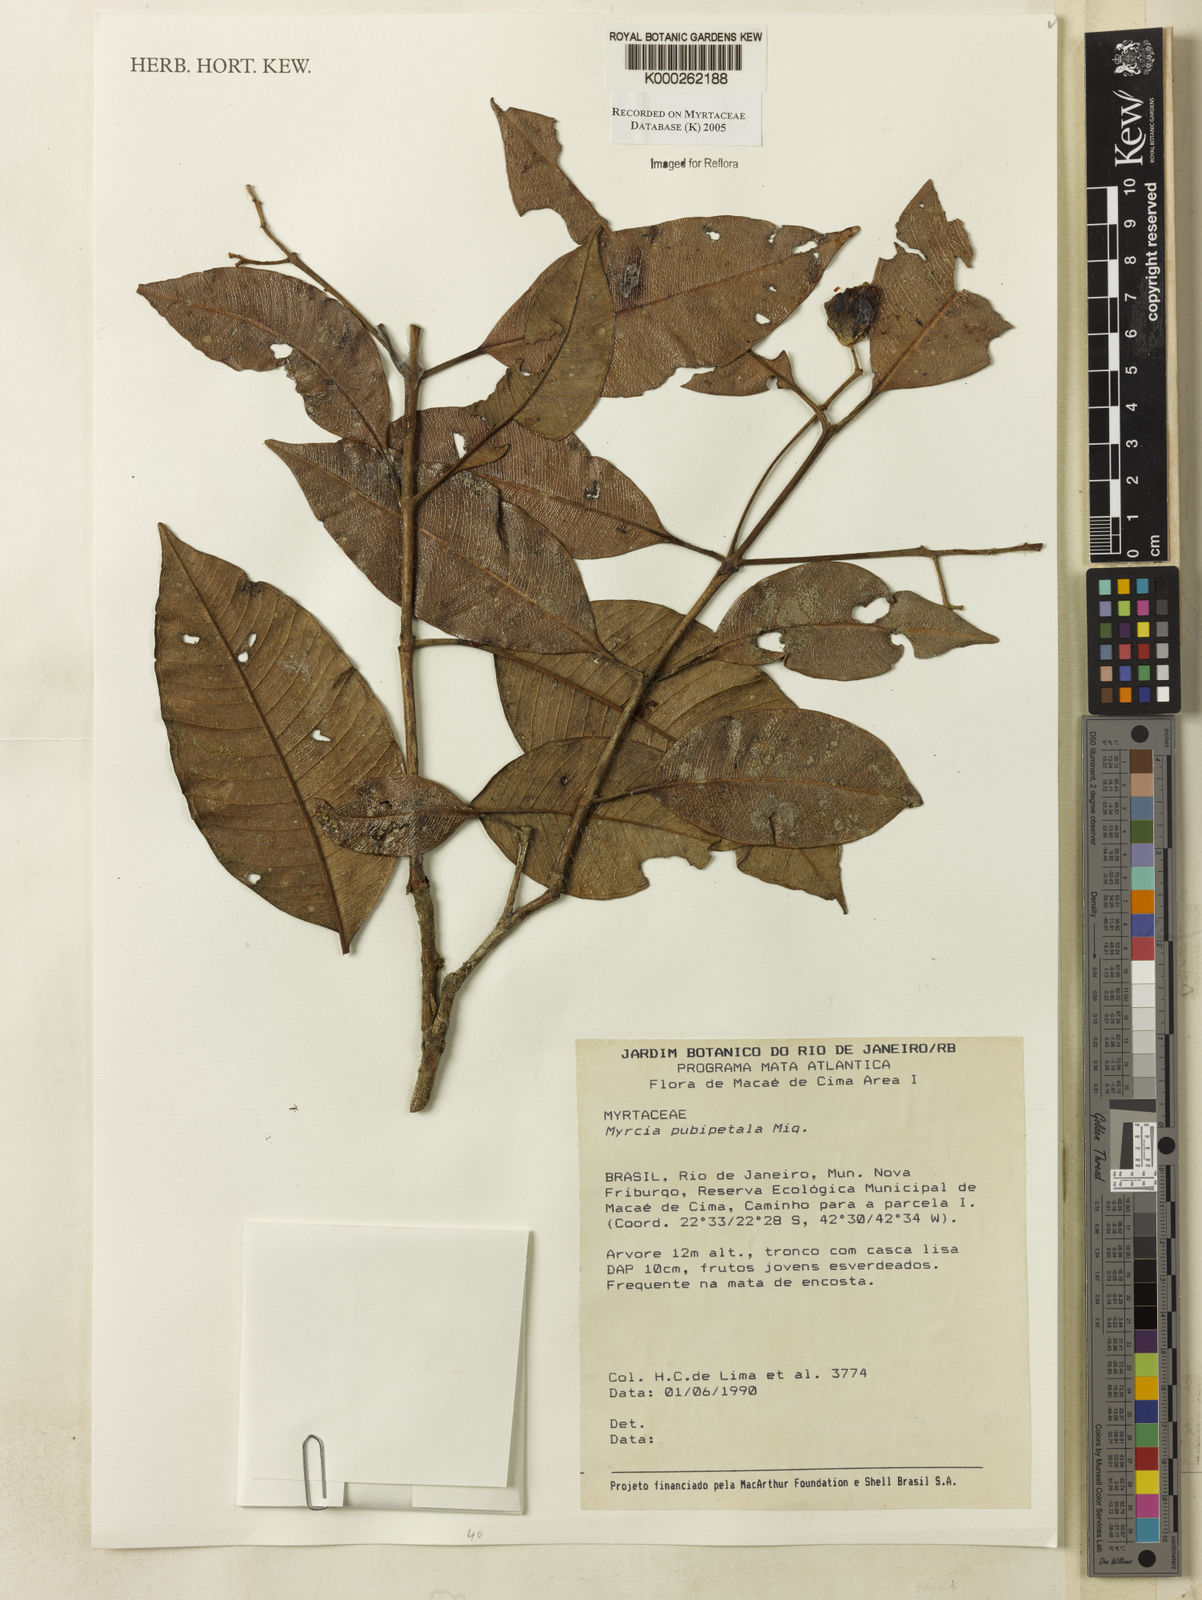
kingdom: Plantae
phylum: Tracheophyta
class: Magnoliopsida
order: Myrtales
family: Myrtaceae
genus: Myrcia
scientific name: Myrcia pubipetala
